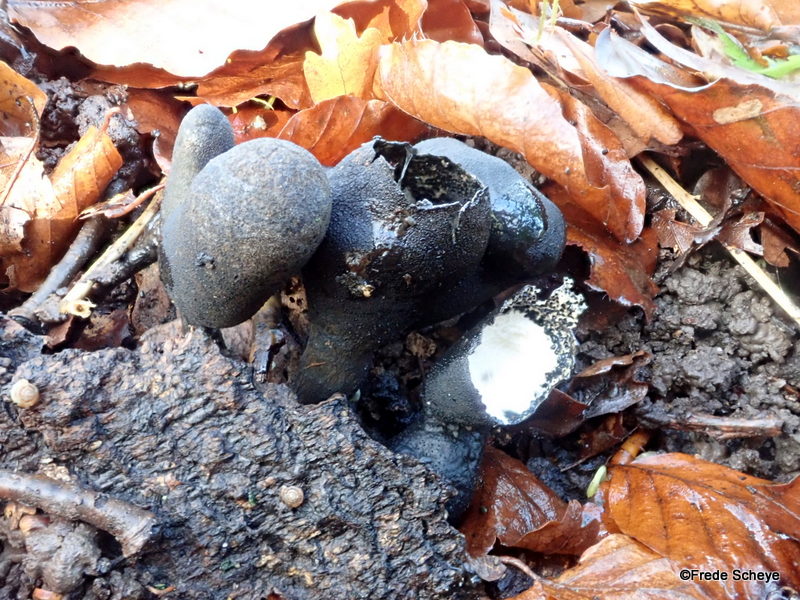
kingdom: Fungi
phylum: Ascomycota
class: Sordariomycetes
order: Xylariales
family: Xylariaceae
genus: Xylaria
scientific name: Xylaria polymorpha
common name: kølle-stødsvamp
